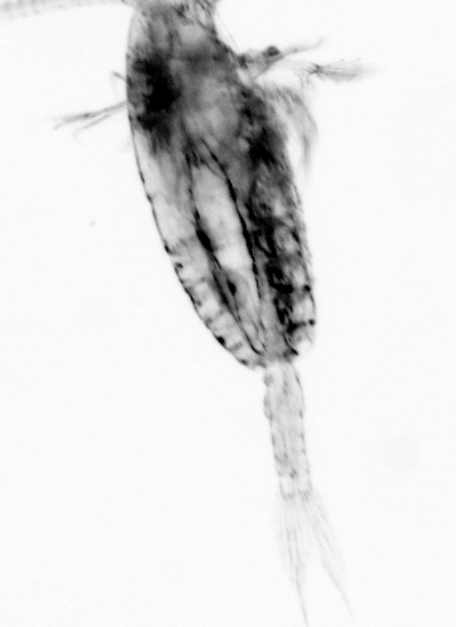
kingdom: Animalia
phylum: Arthropoda
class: Copepoda
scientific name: Copepoda
